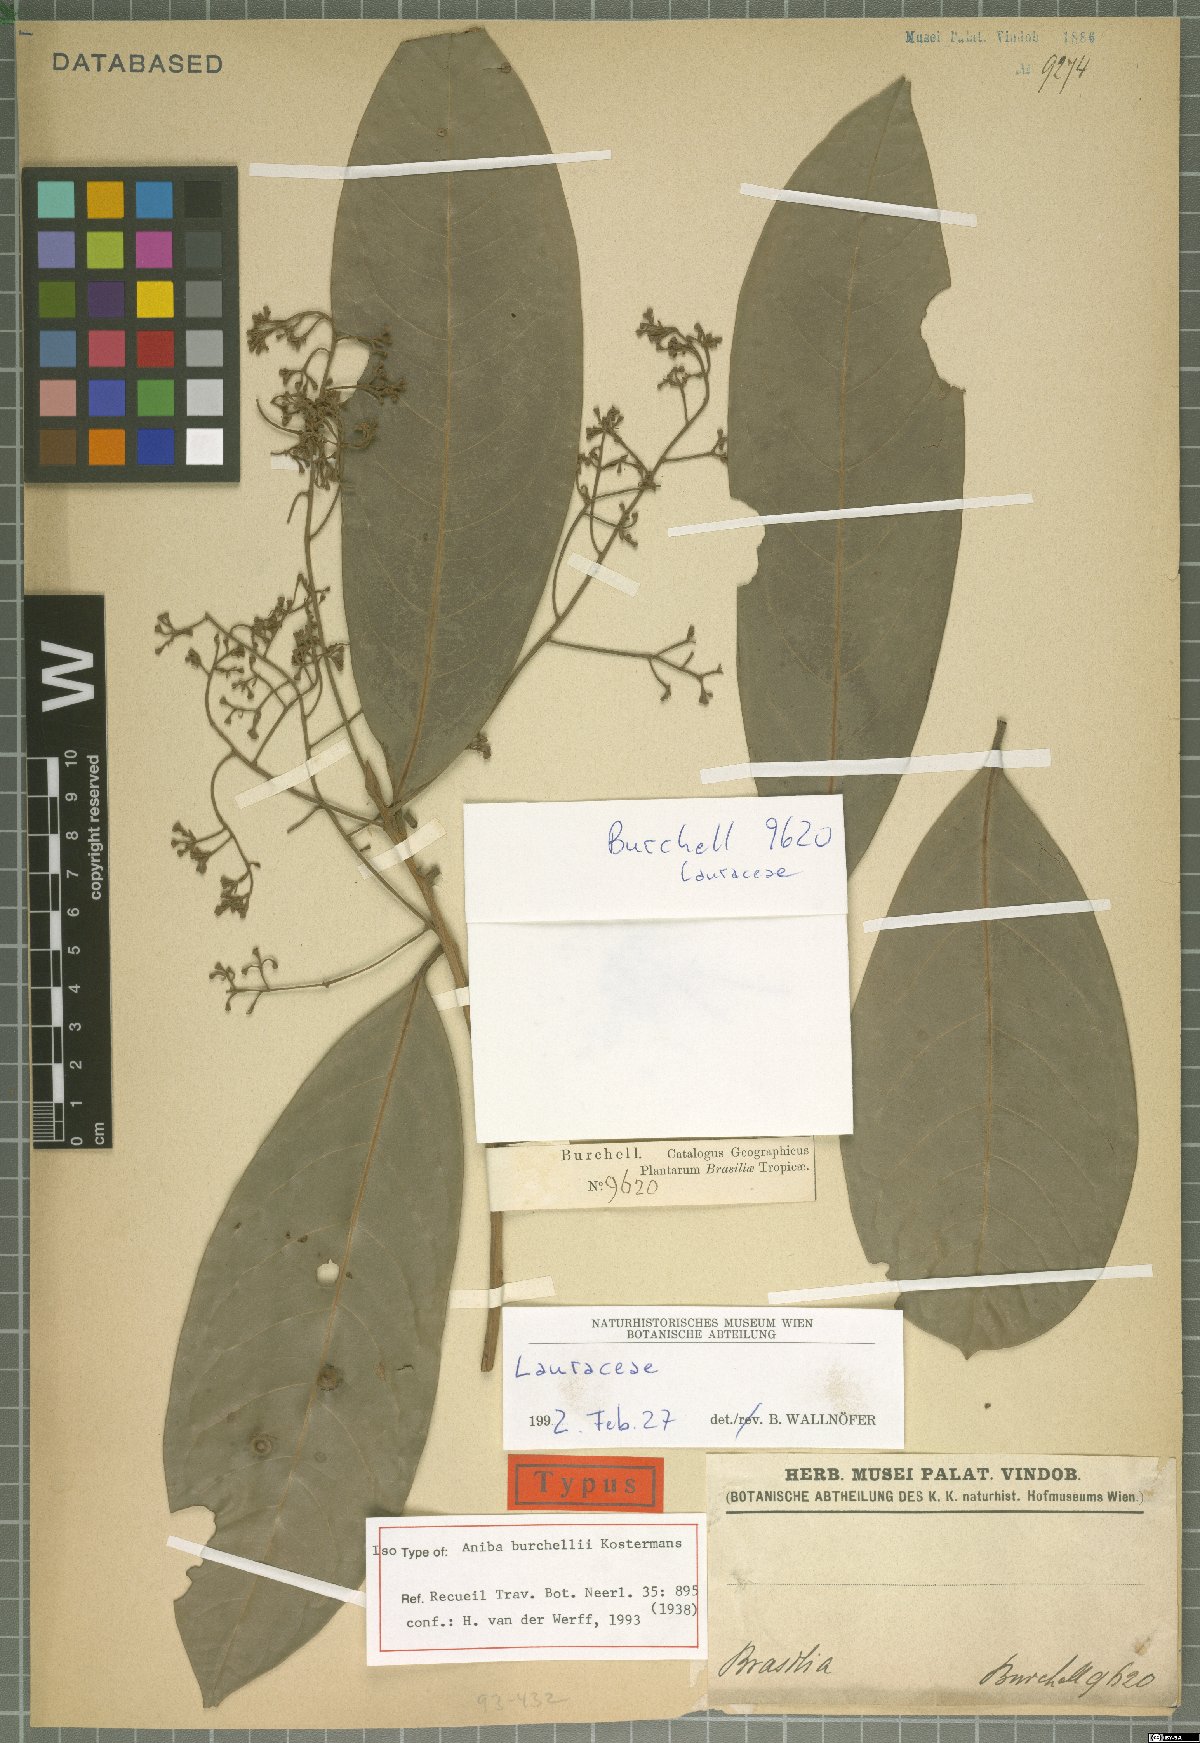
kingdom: Plantae
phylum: Tracheophyta
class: Magnoliopsida
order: Laurales
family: Lauraceae
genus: Aniba
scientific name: Aniba burchellii
